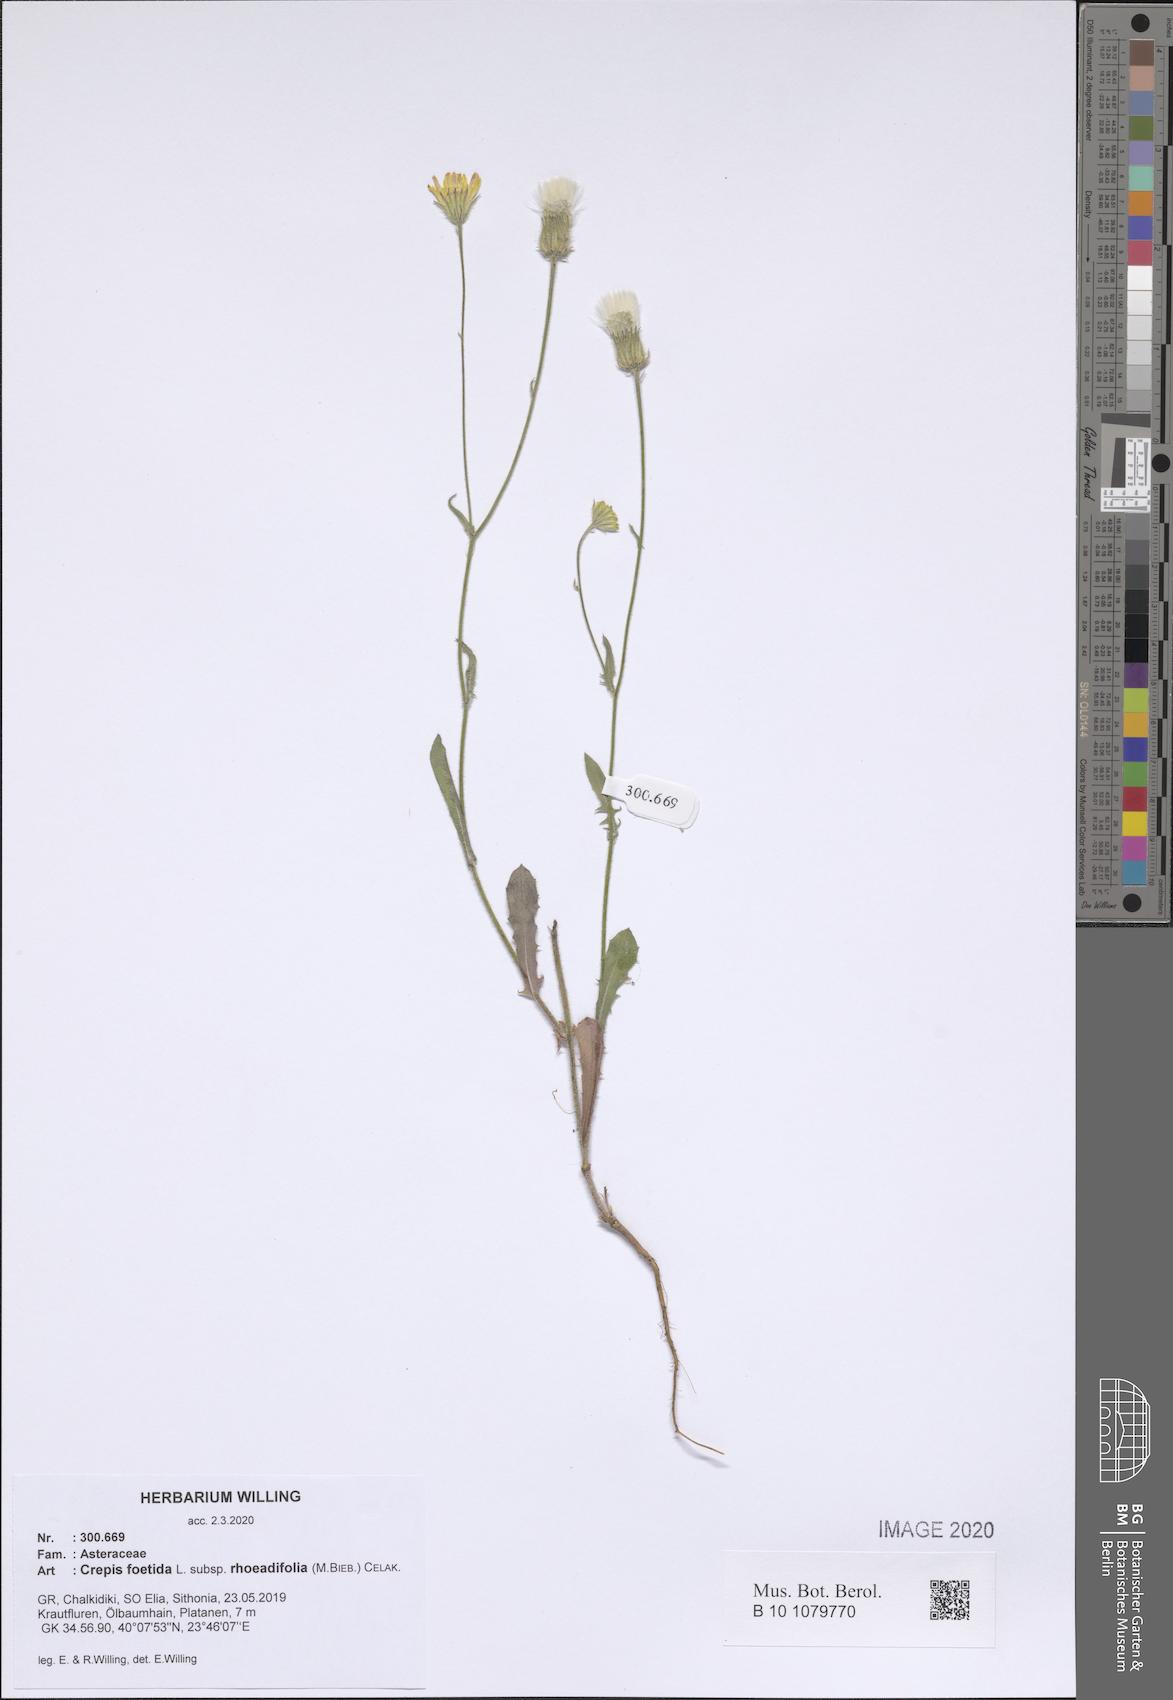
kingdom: Plantae
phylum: Tracheophyta
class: Magnoliopsida
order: Asterales
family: Asteraceae
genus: Crepis
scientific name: Crepis foetida
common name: Stinking hawk's-beard
